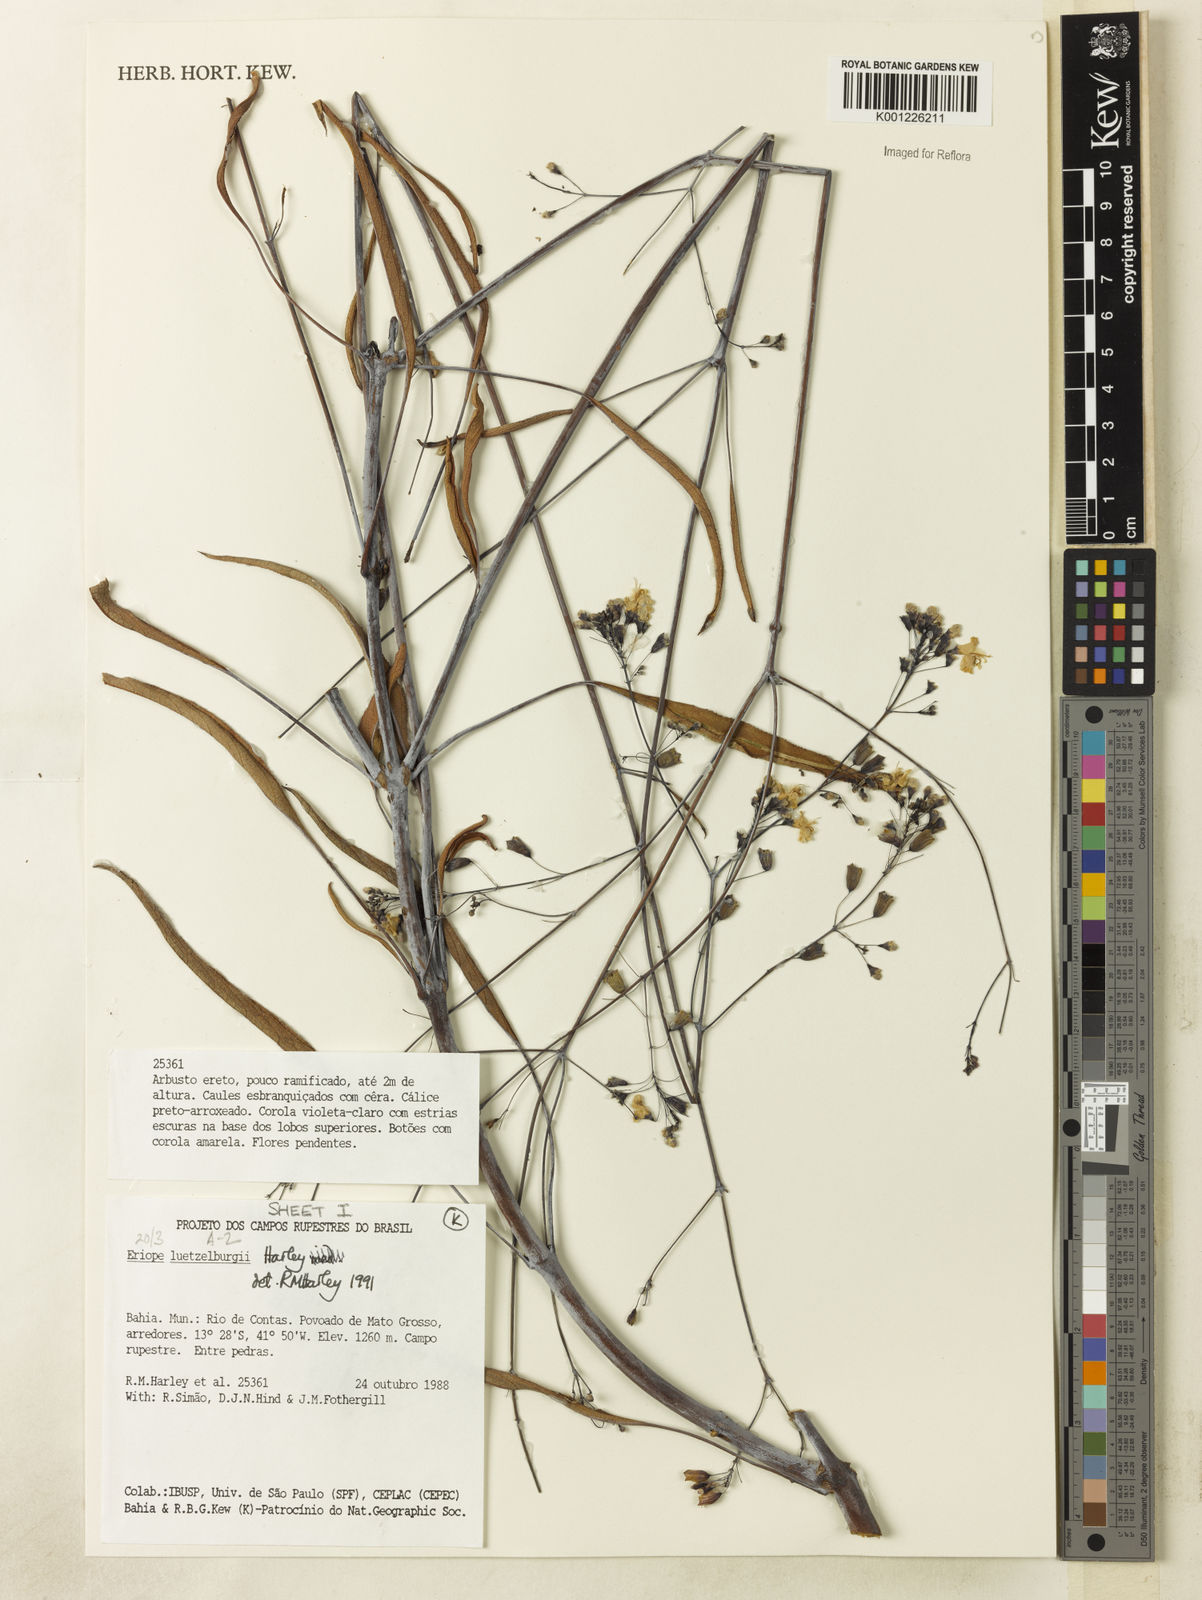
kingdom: Plantae
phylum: Tracheophyta
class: Magnoliopsida
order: Lamiales
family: Lamiaceae
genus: Eriope
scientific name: Eriope luetzelburgii
